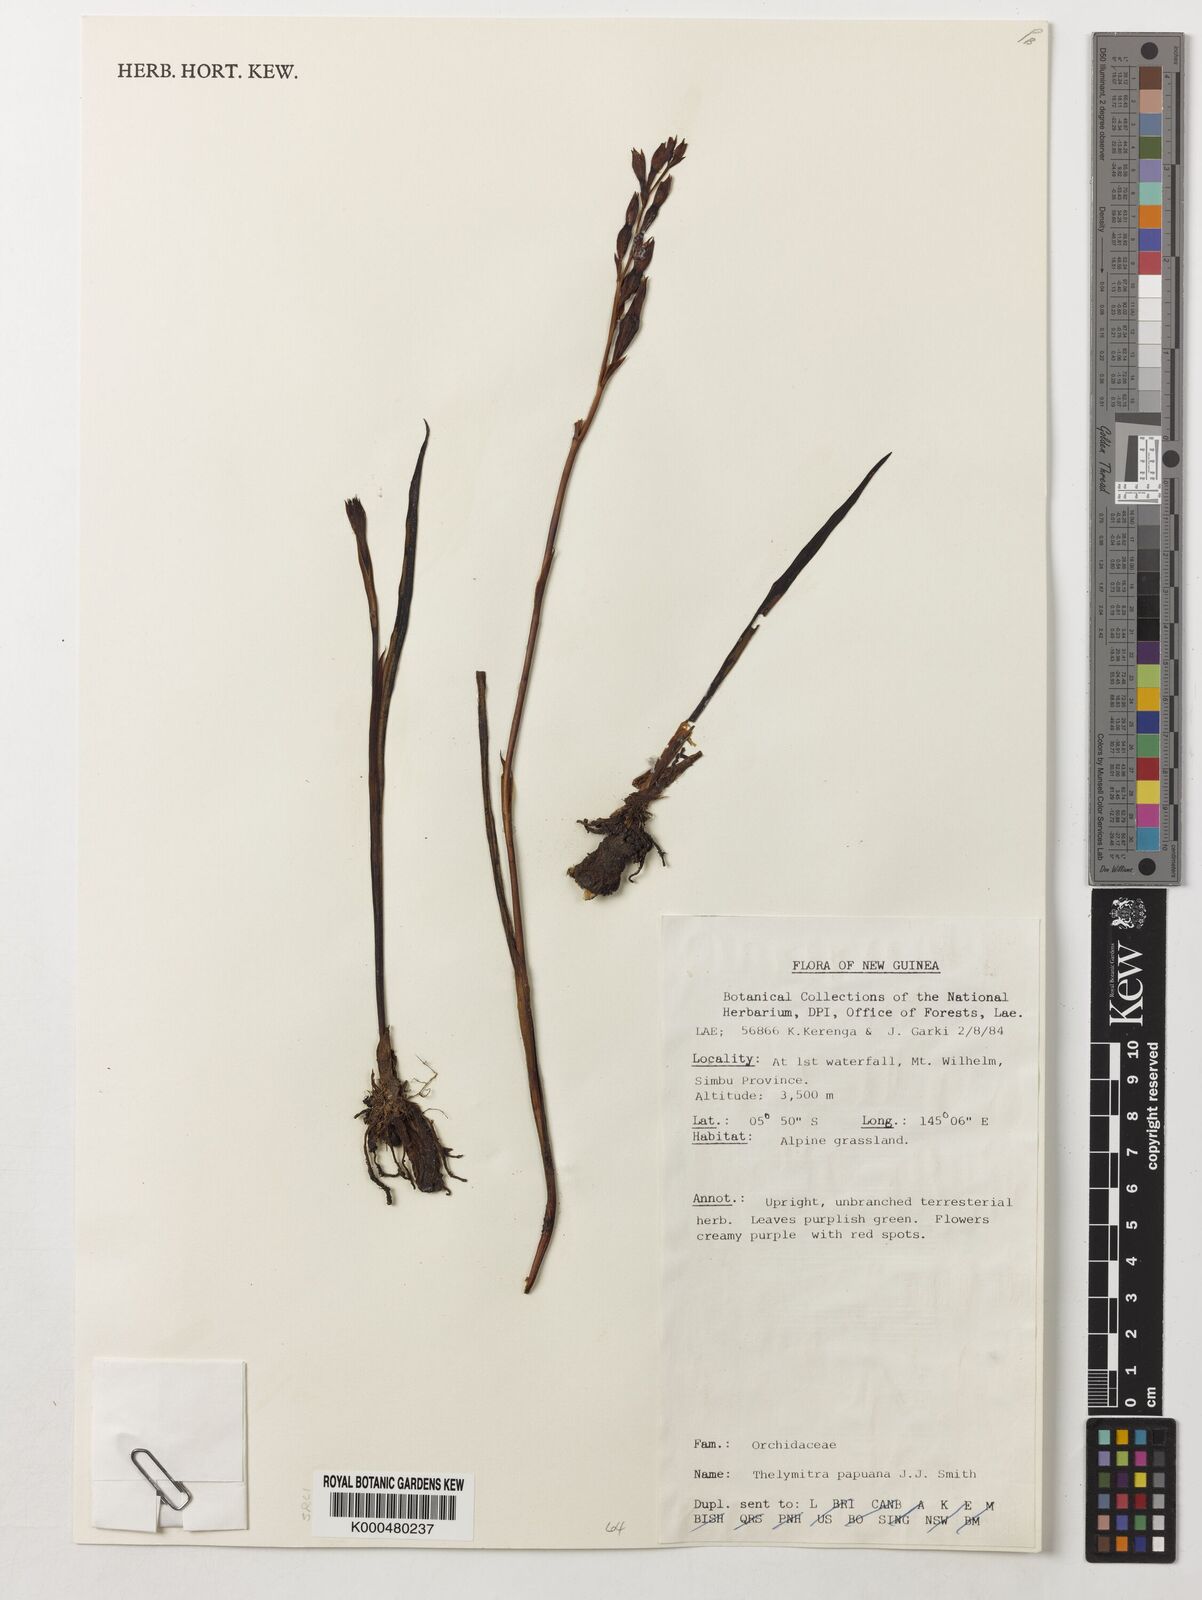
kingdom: Plantae
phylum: Tracheophyta
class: Liliopsida
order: Asparagales
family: Orchidaceae
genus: Thelymitra
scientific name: Thelymitra papuana
